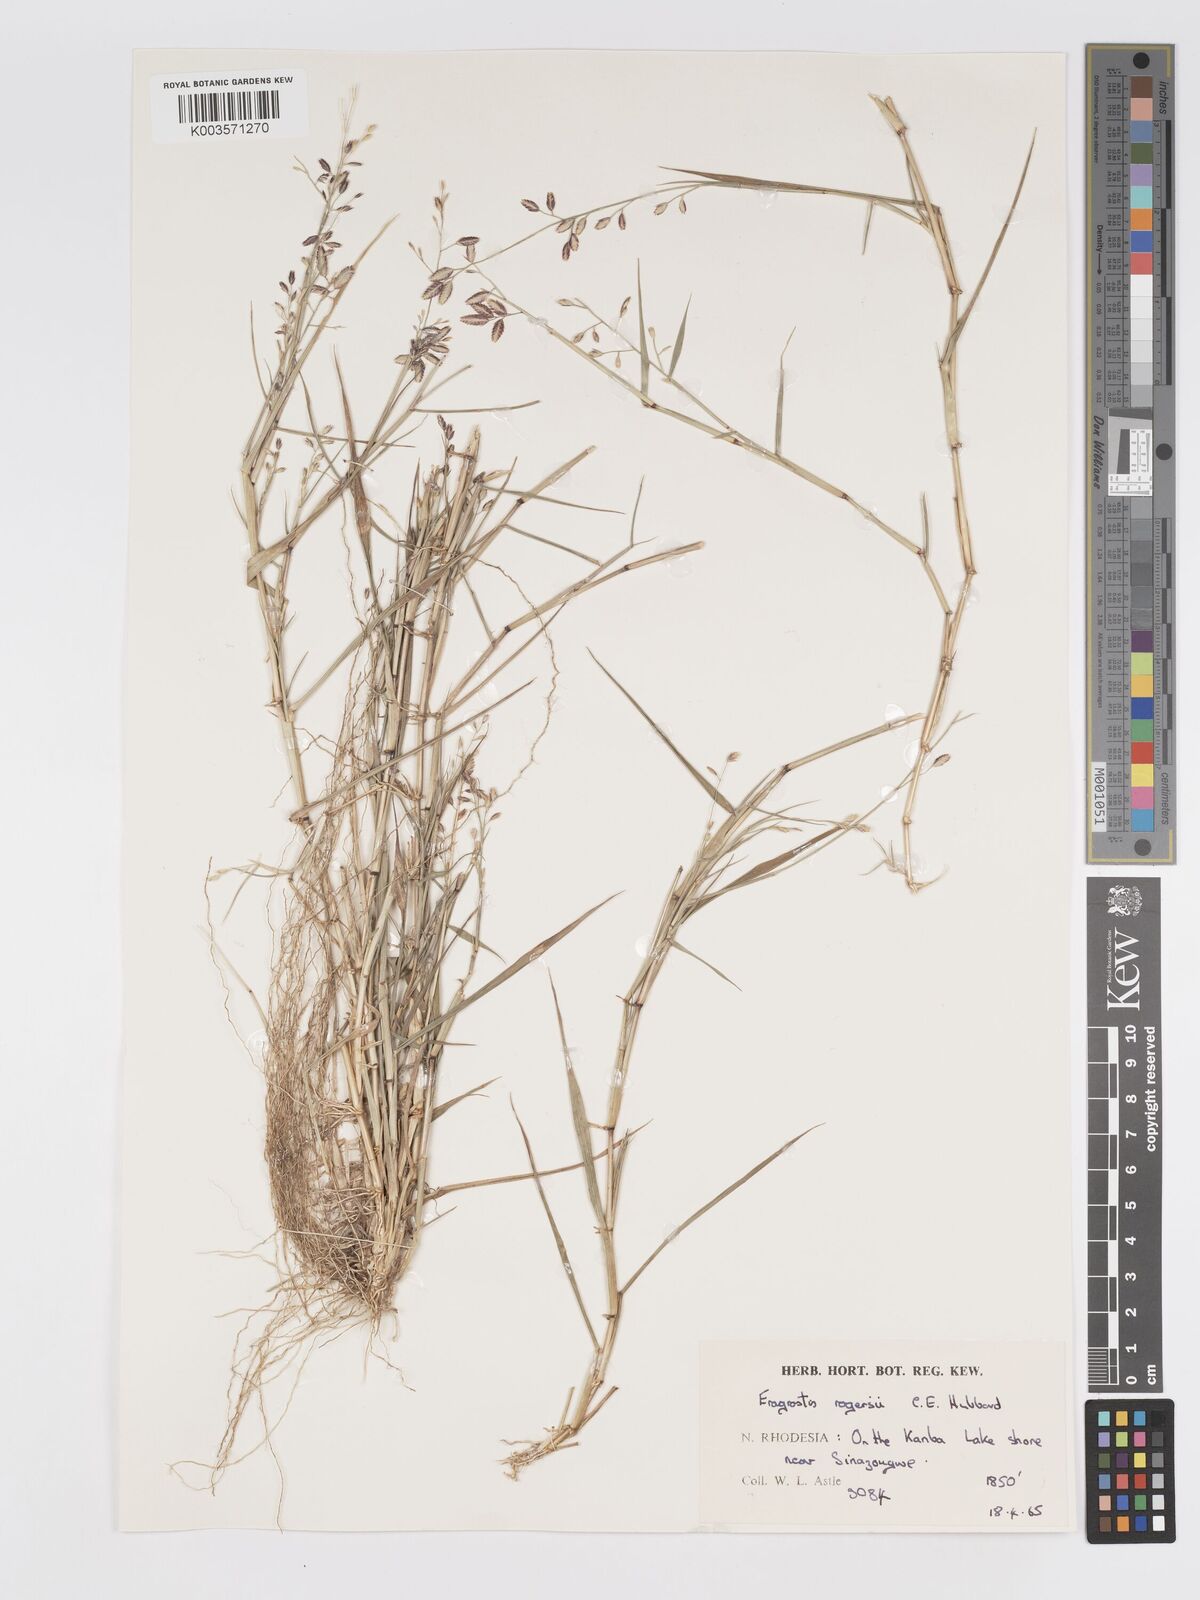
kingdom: Plantae
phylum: Tracheophyta
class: Liliopsida
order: Poales
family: Poaceae
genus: Eragrostis
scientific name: Eragrostis rogersii
